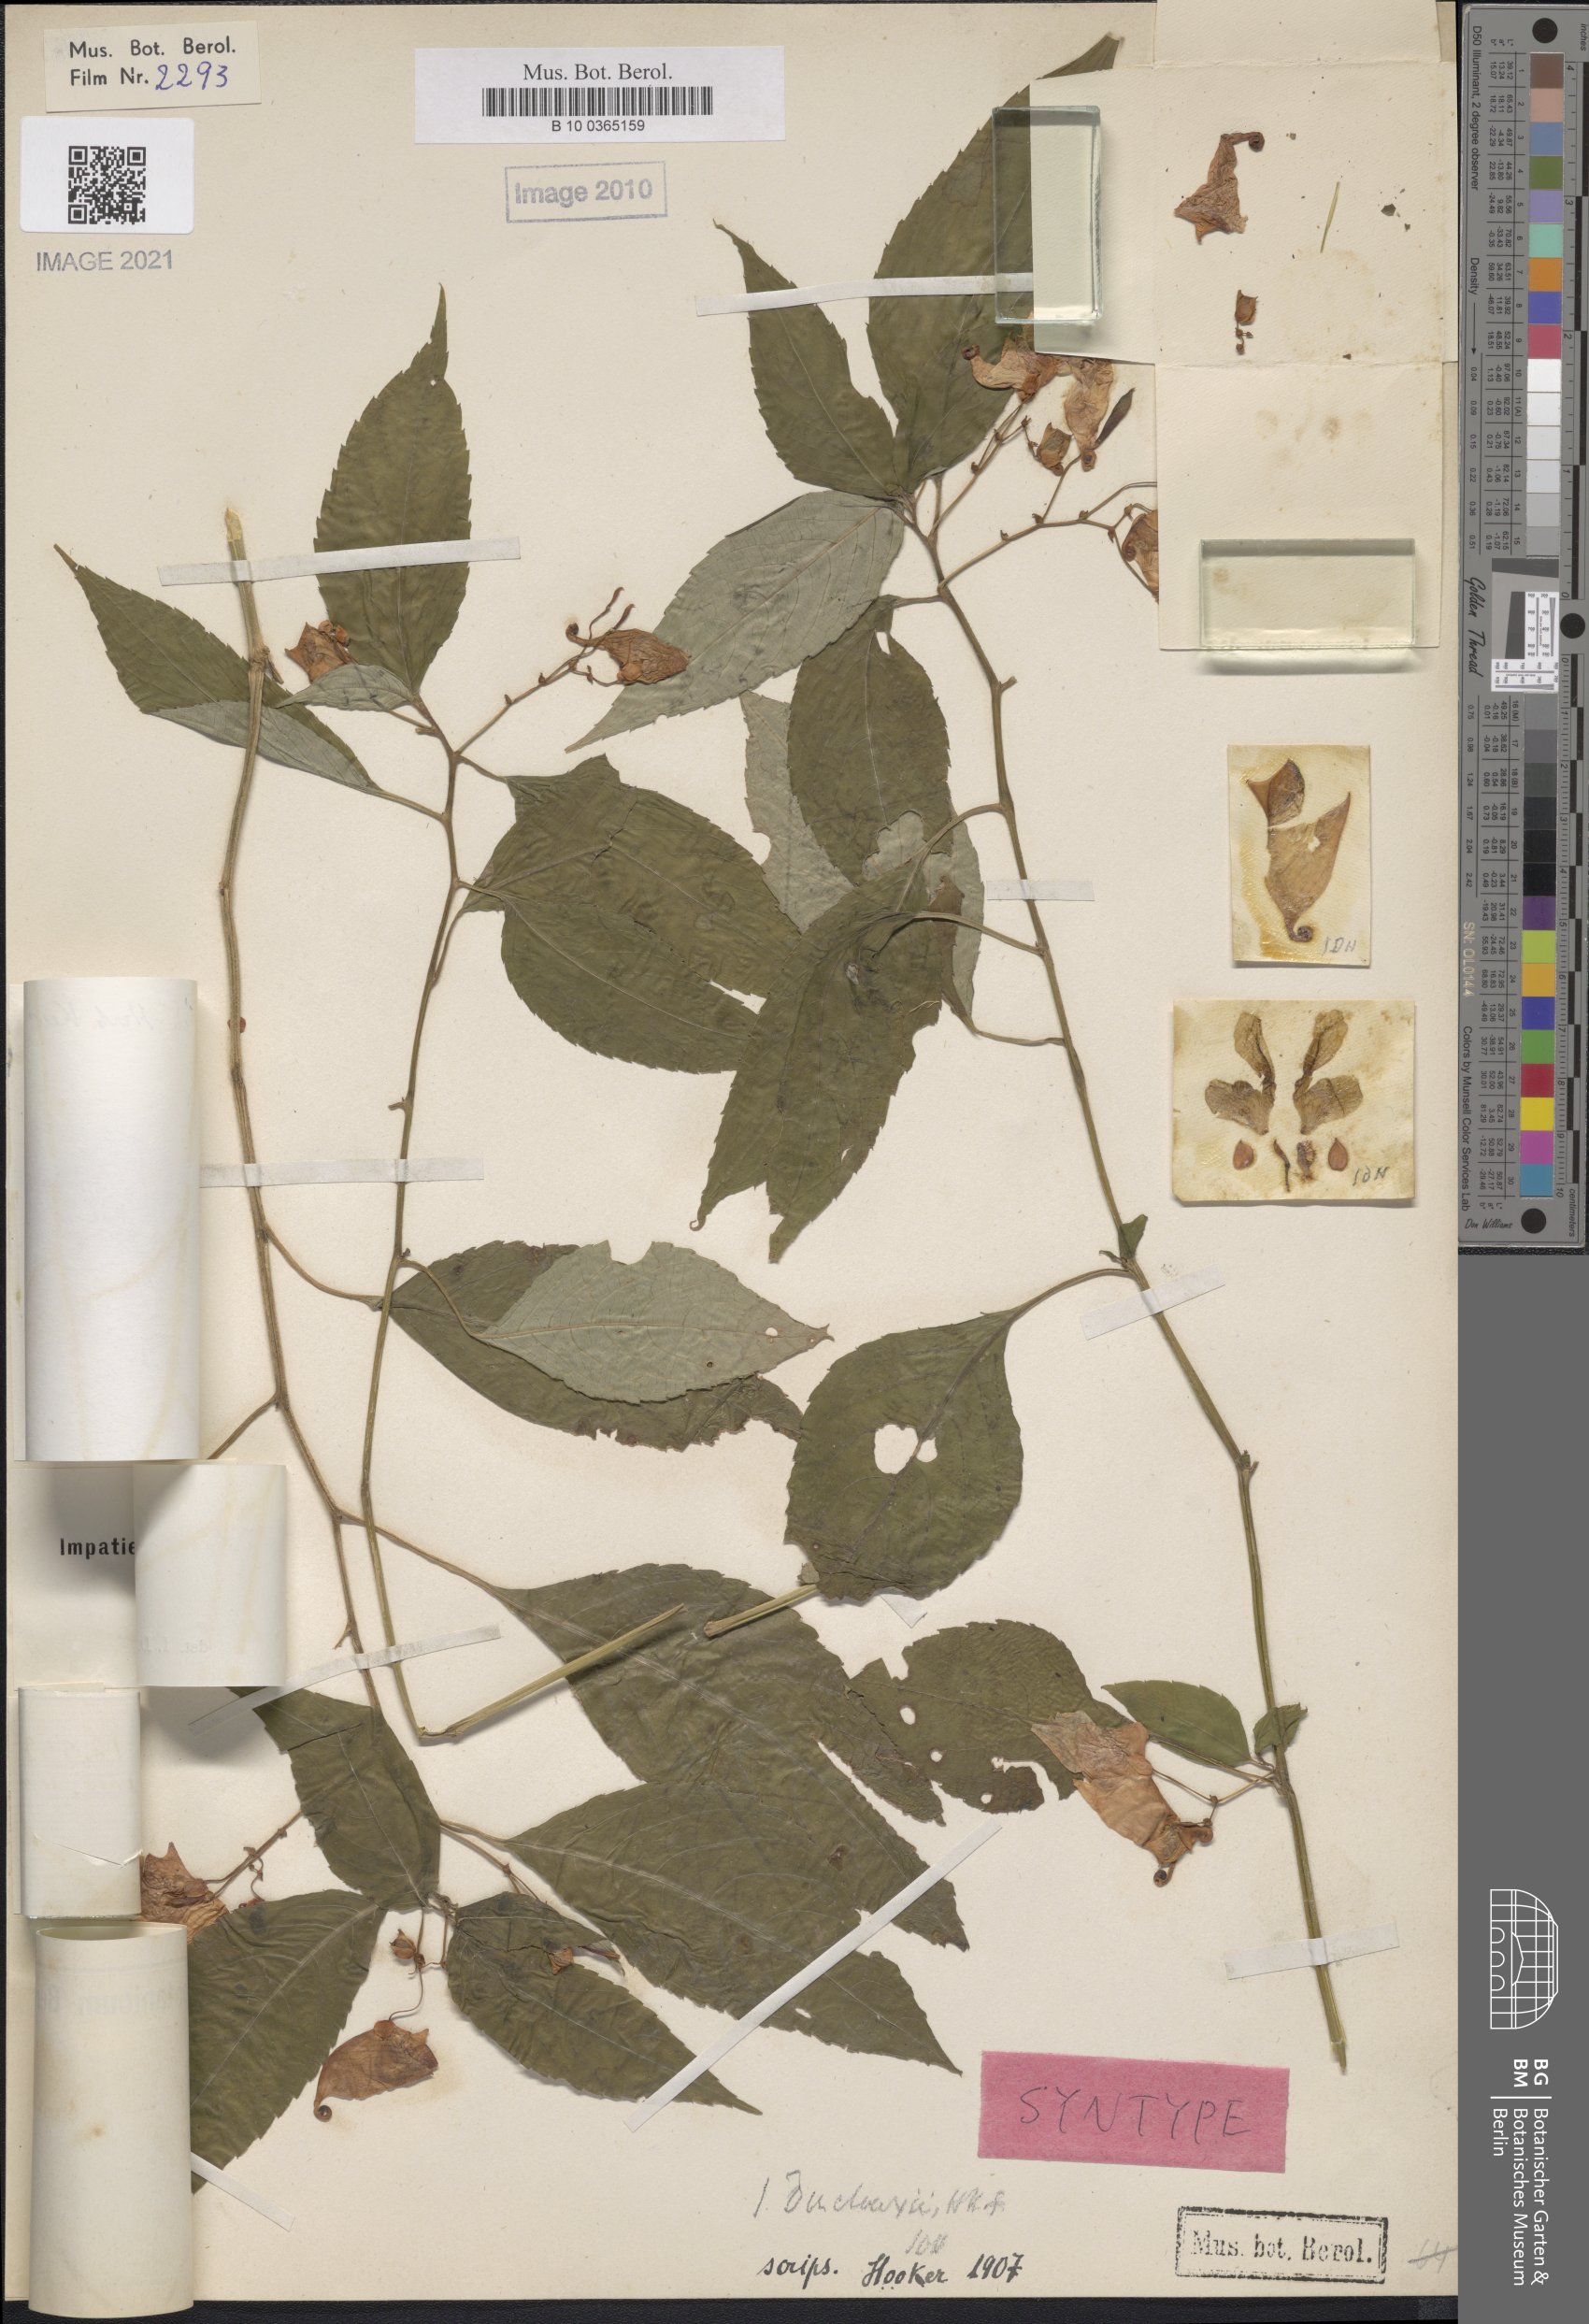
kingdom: Plantae
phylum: Tracheophyta
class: Magnoliopsida
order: Ericales
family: Balsaminaceae
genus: Impatiens
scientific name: Impatiens duclouxii
